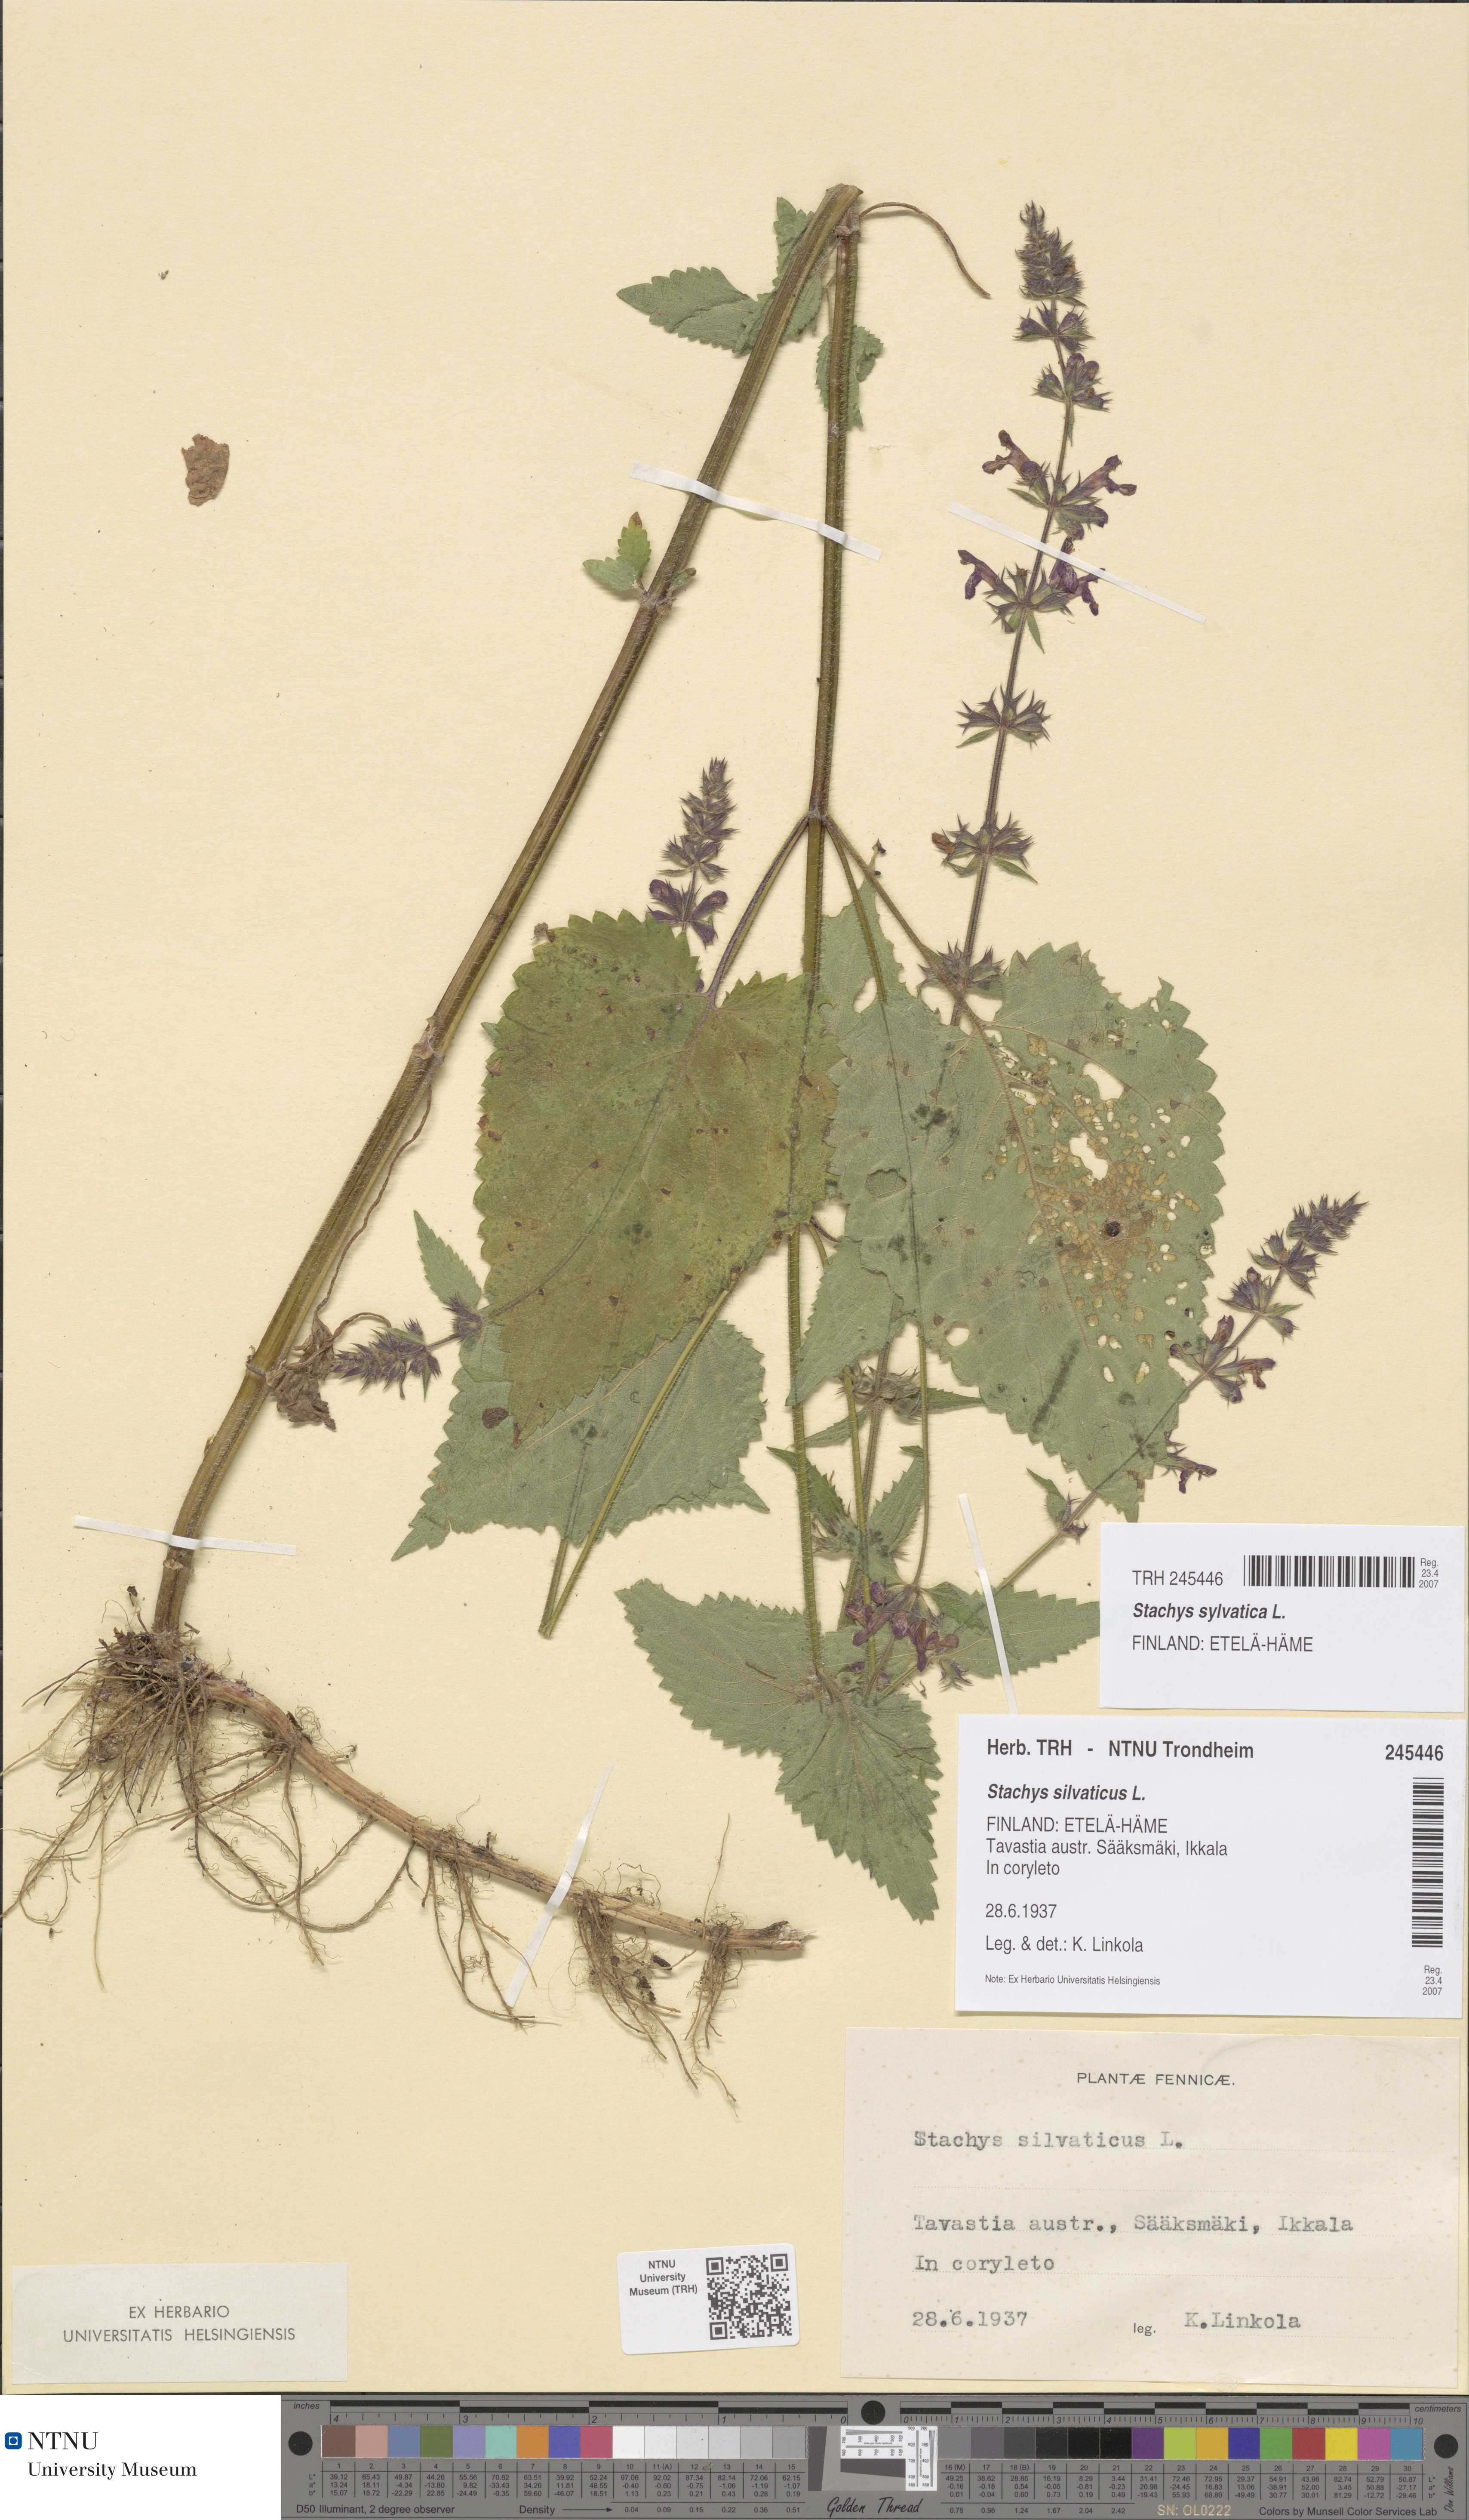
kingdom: Plantae
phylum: Tracheophyta
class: Magnoliopsida
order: Lamiales
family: Lamiaceae
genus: Stachys
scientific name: Stachys sylvatica
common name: Hedge woundwort
